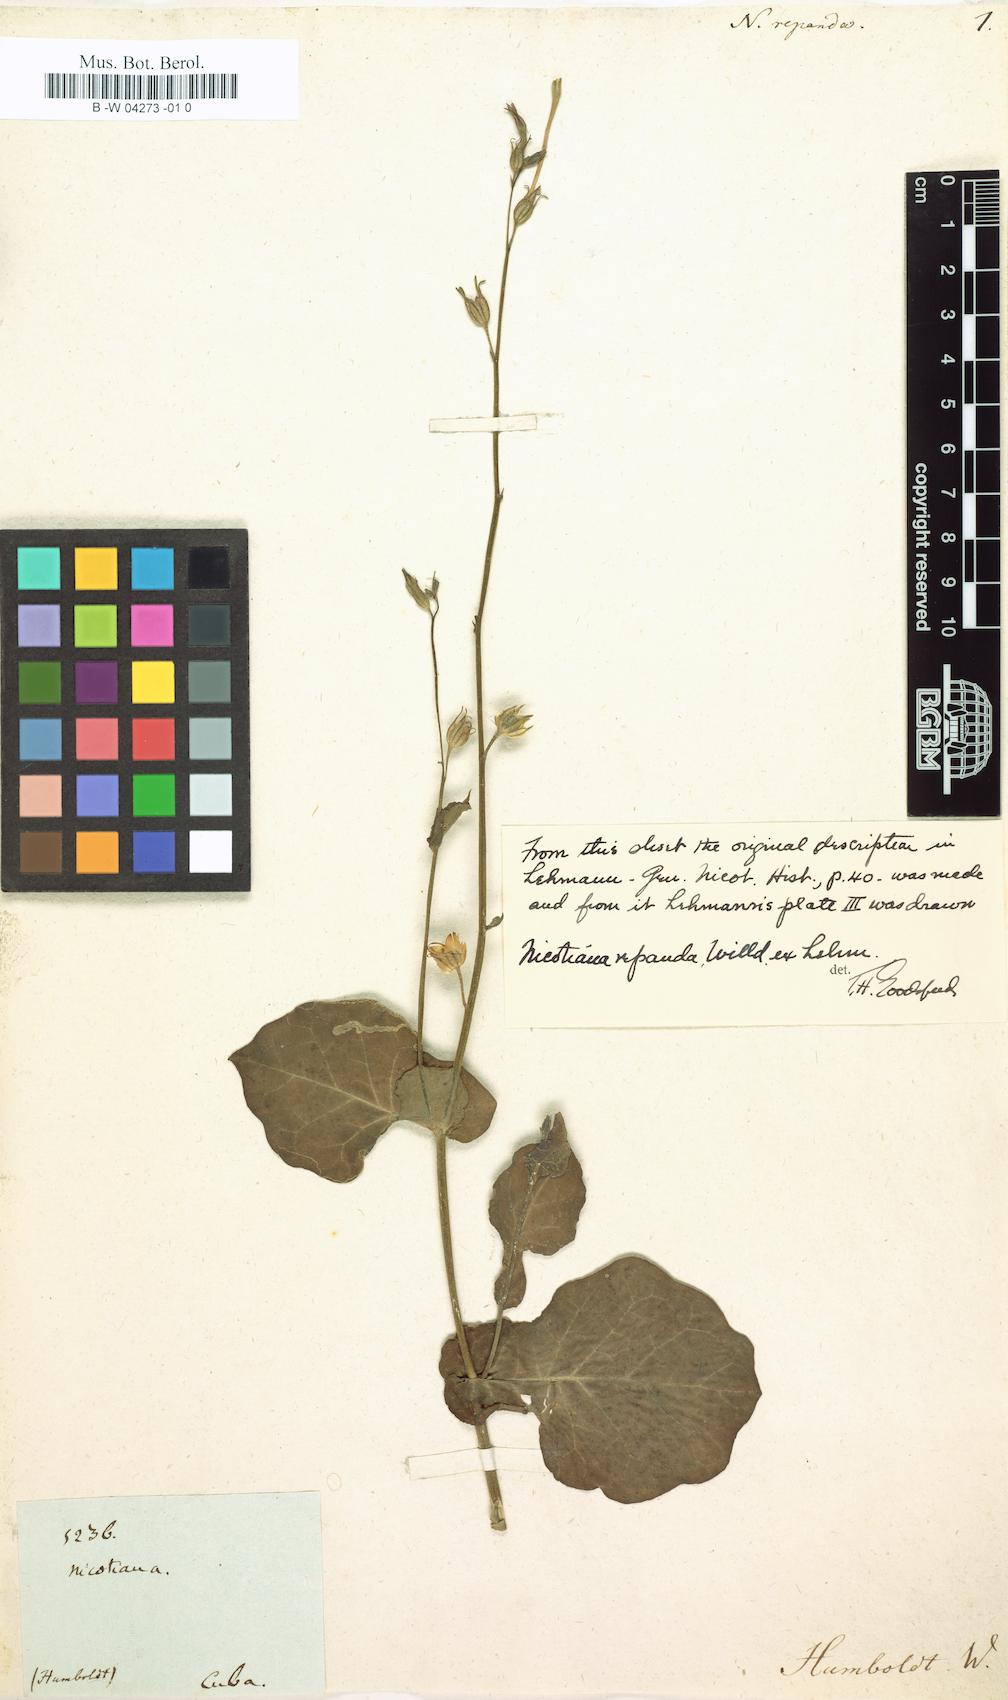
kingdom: Plantae
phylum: Tracheophyta
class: Magnoliopsida
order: Solanales
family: Solanaceae
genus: Nicotiana
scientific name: Nicotiana repanda
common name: Fiddle-leaf tobacco
